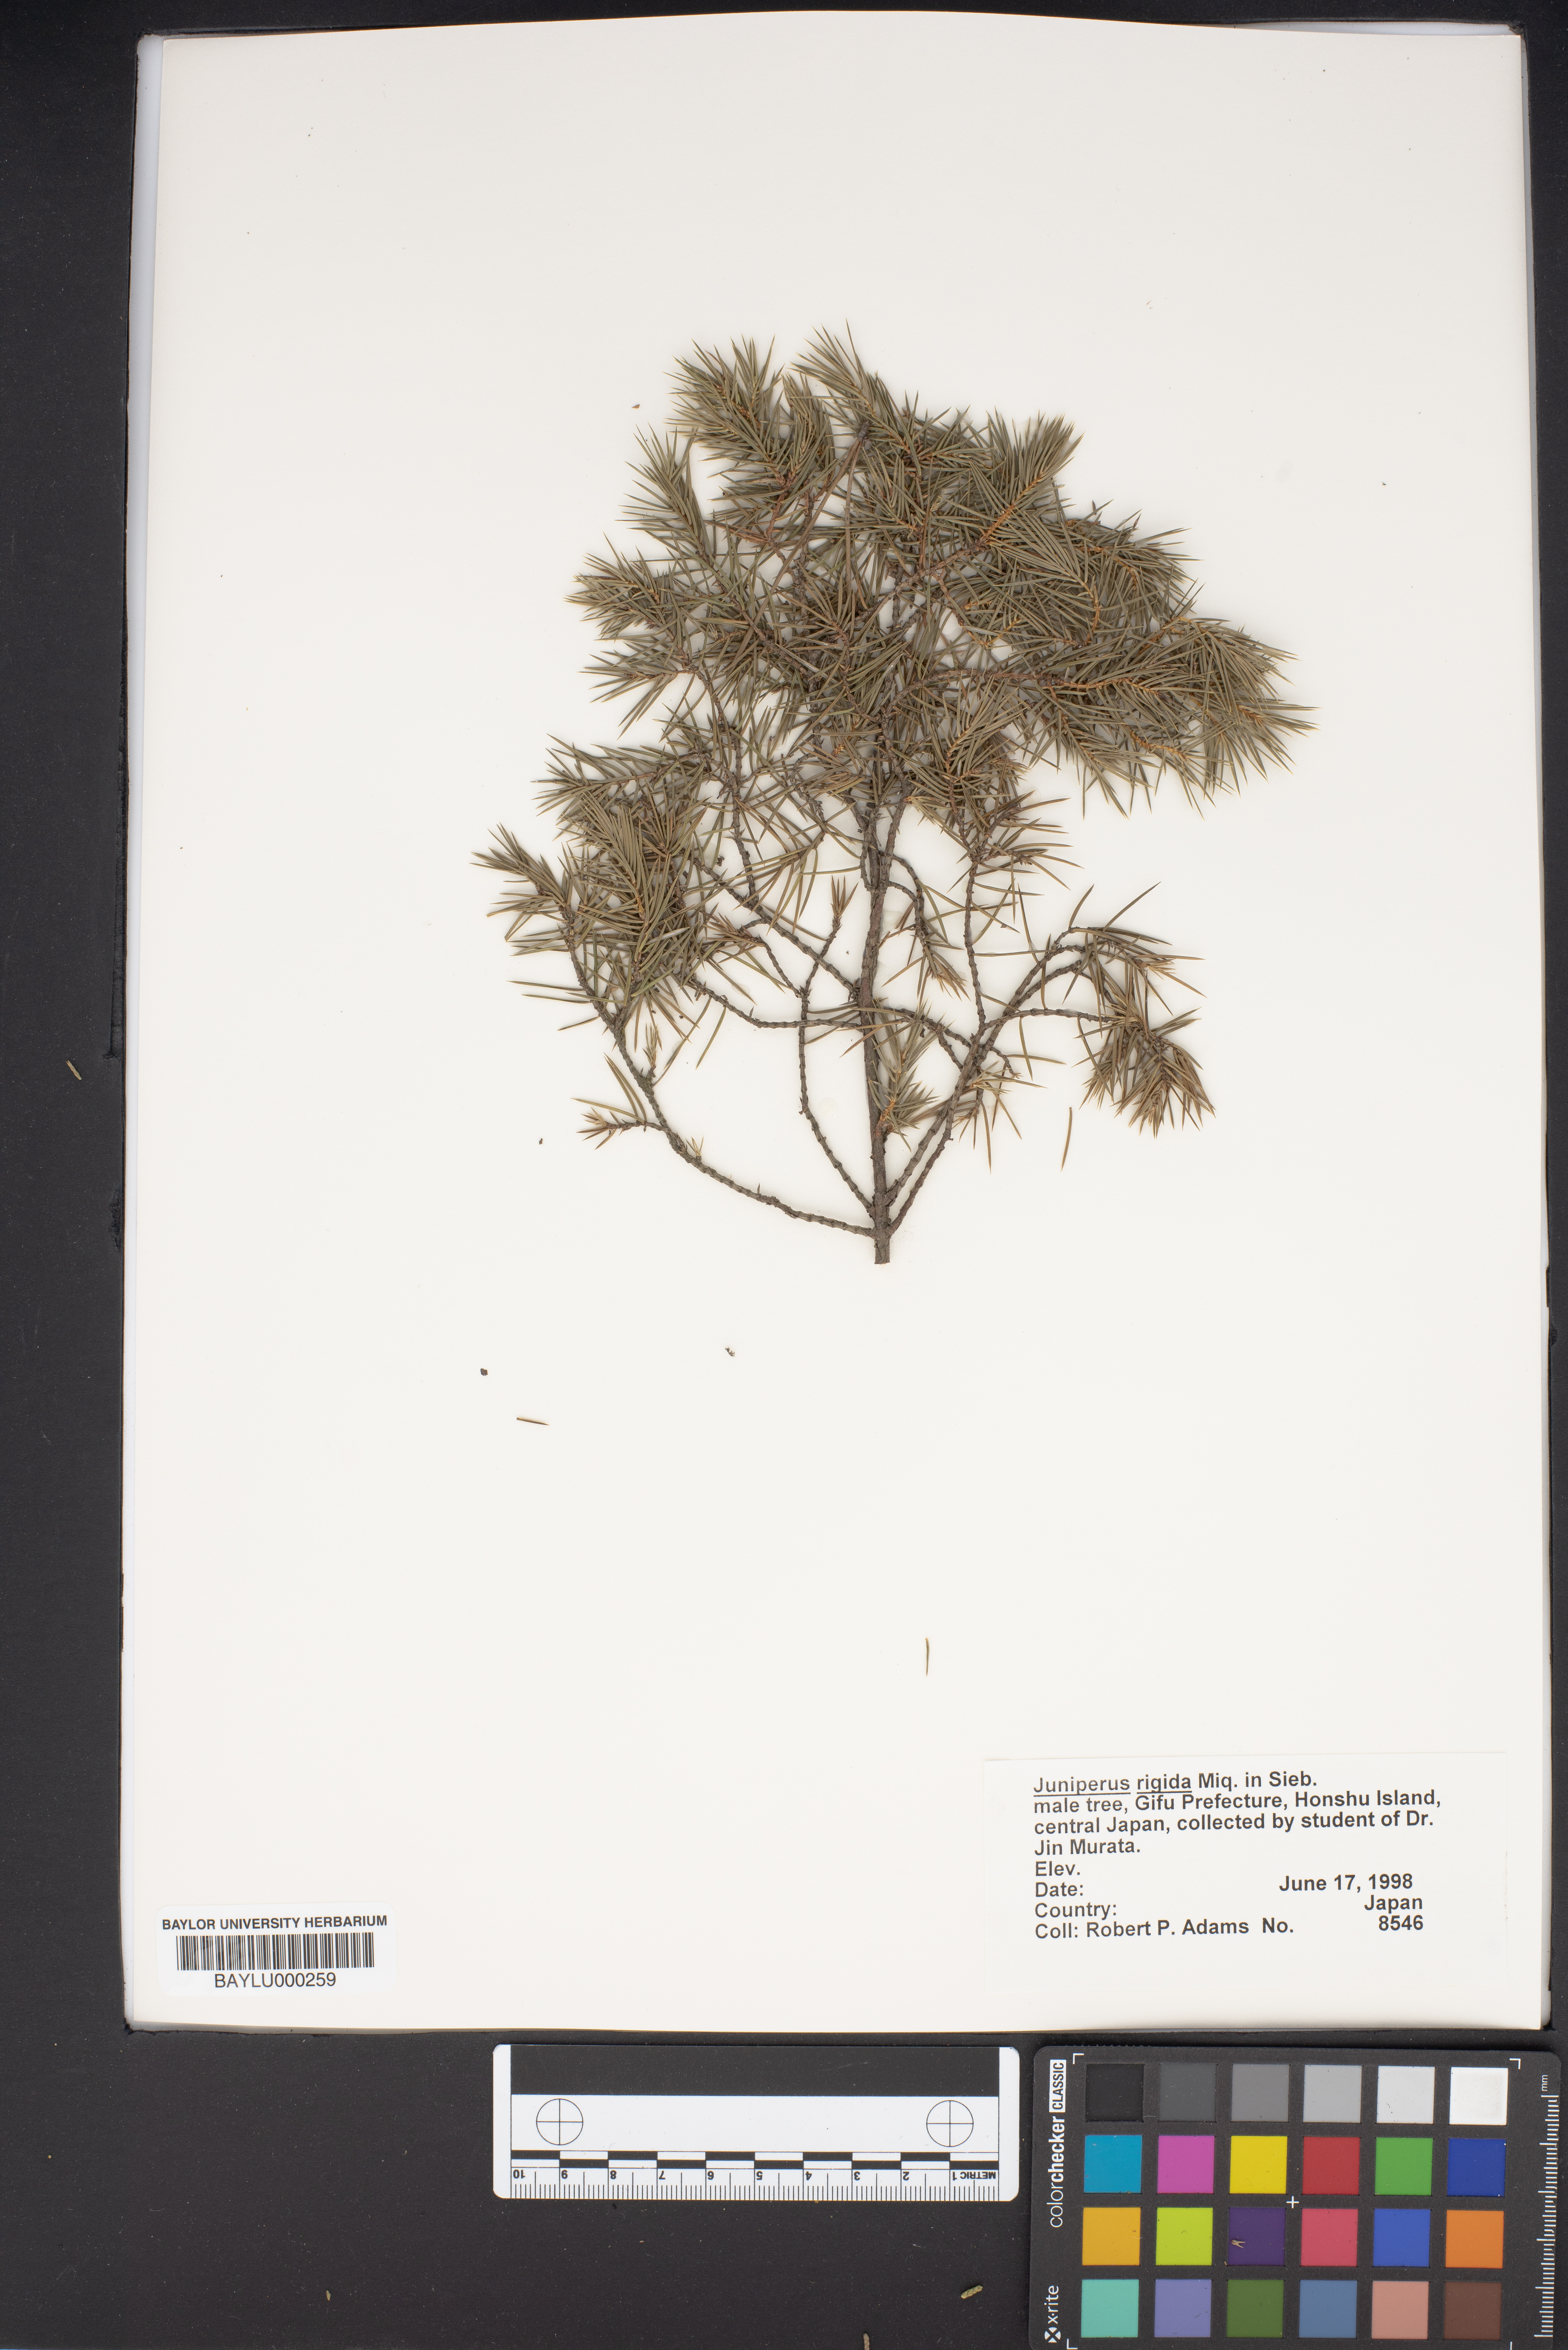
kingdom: Plantae
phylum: Tracheophyta
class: Pinopsida
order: Pinales
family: Cupressaceae
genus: Juniperus
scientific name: Juniperus rigida
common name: Needle juniper
